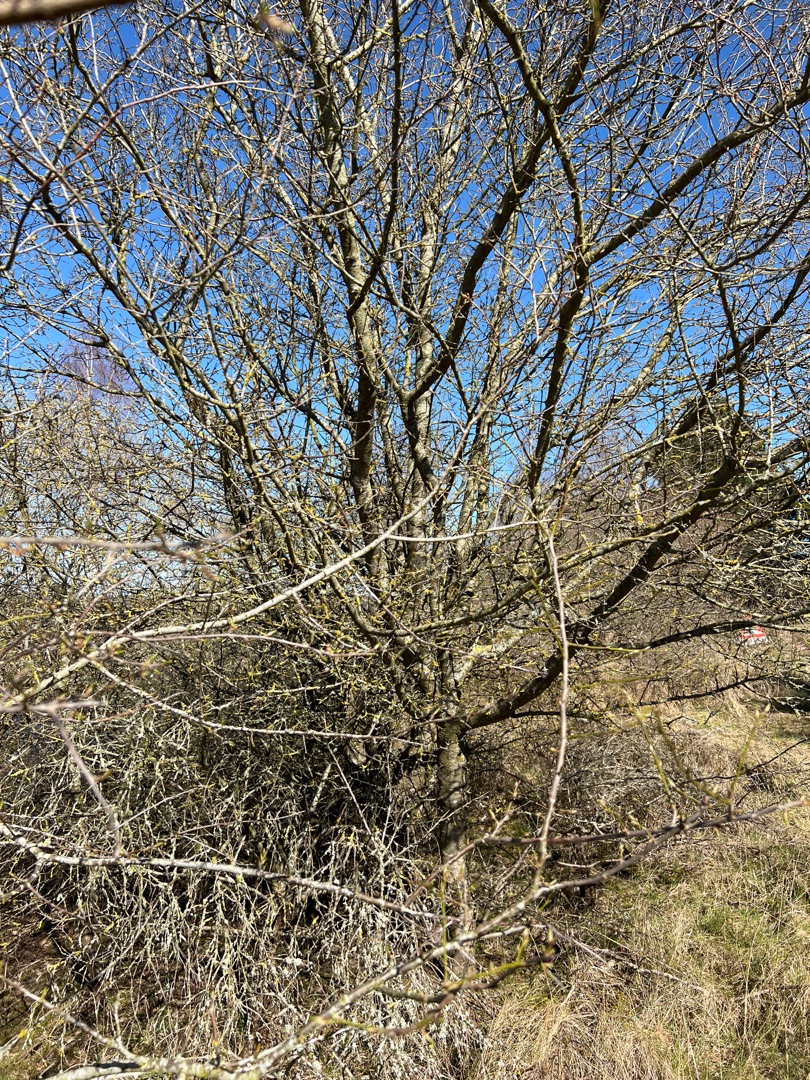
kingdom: Plantae
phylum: Tracheophyta
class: Magnoliopsida
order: Rosales
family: Rosaceae
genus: Prunus
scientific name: Prunus cerasifera
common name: Mirabel
